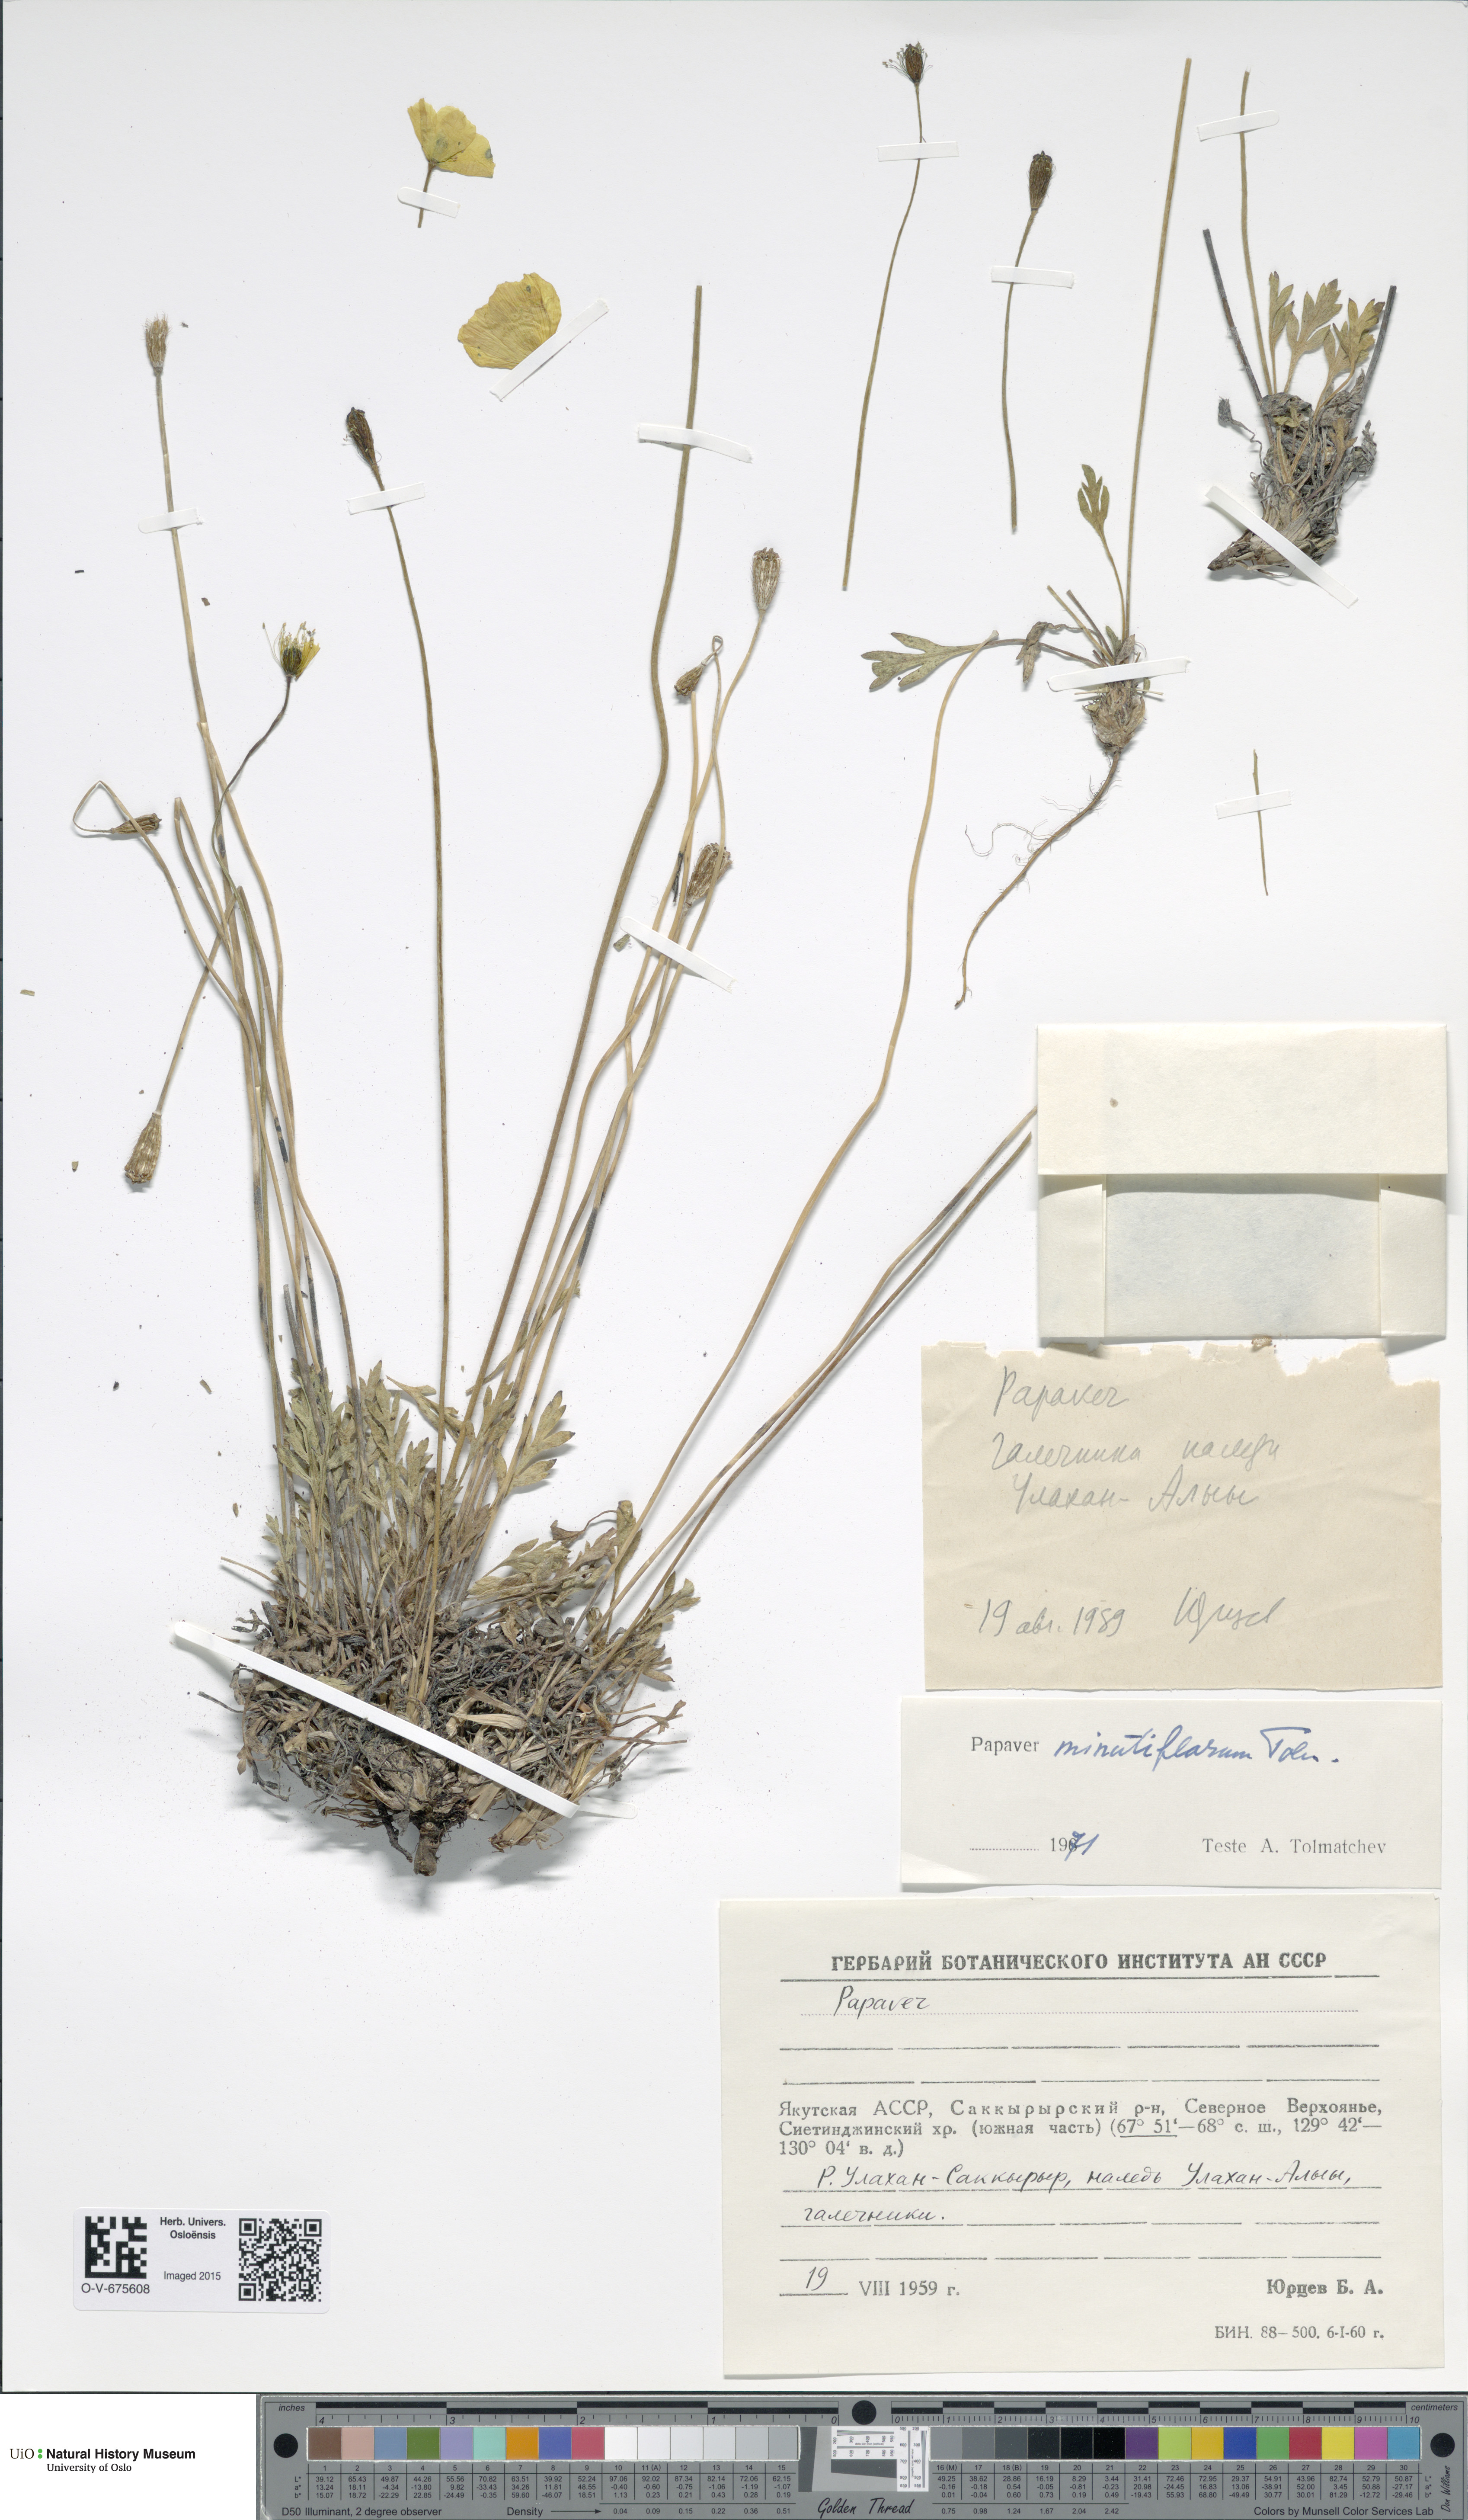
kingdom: Plantae
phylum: Tracheophyta
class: Magnoliopsida
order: Ranunculales
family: Papaveraceae
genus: Papaver
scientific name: Papaver lapponicum
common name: Lapland poppy
